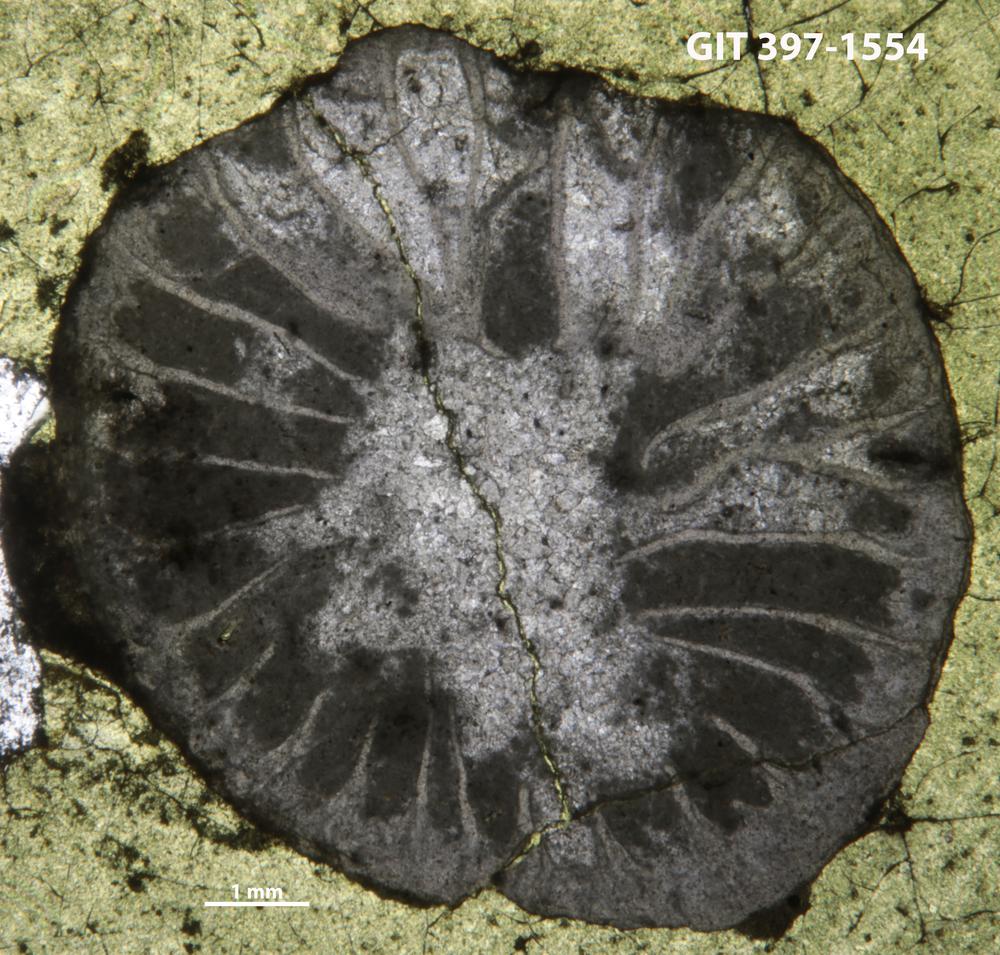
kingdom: Animalia
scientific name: Animalia
